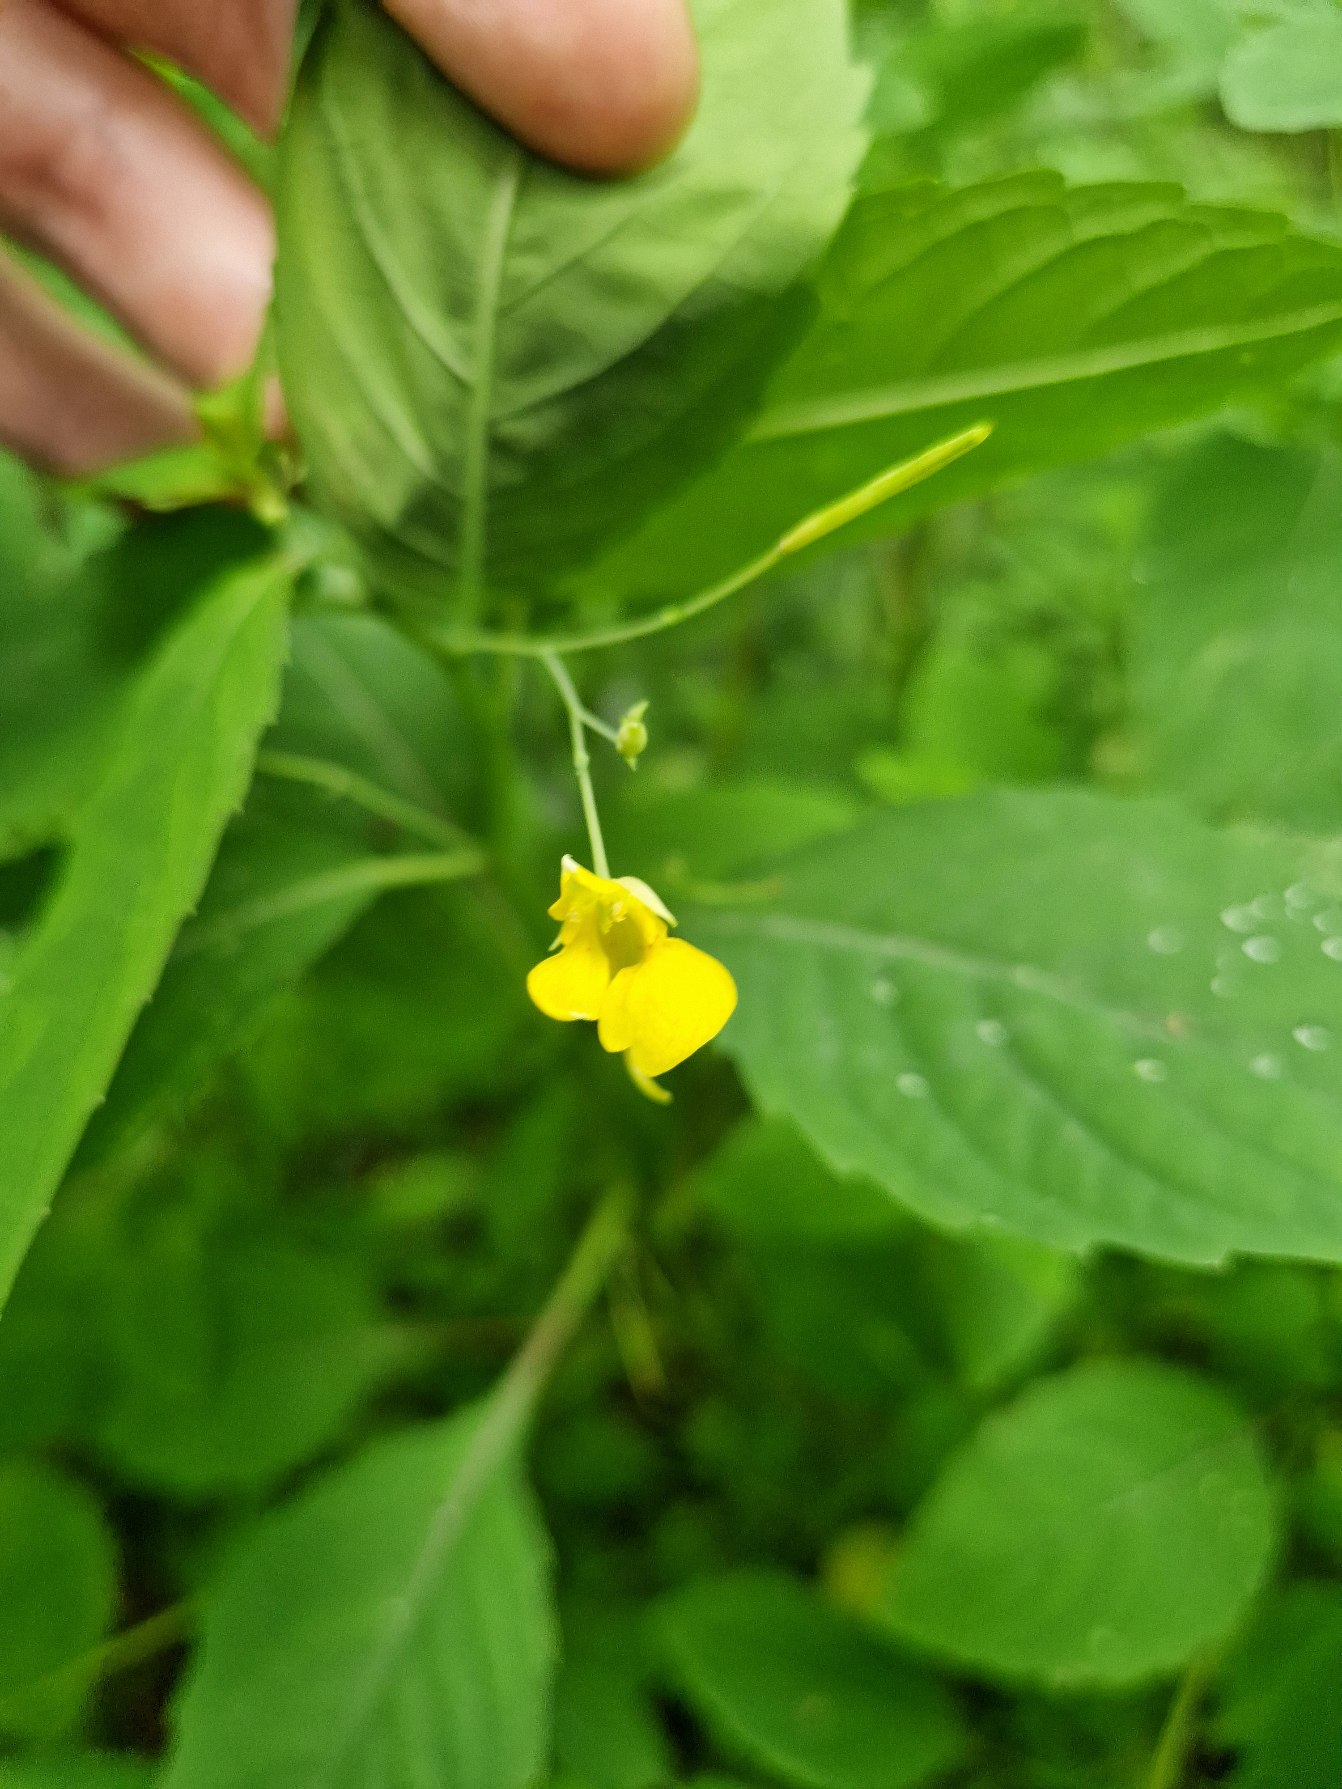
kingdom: Plantae
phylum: Tracheophyta
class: Magnoliopsida
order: Ericales
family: Balsaminaceae
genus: Impatiens
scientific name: Impatiens noli-tangere
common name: Spring-balsamin
